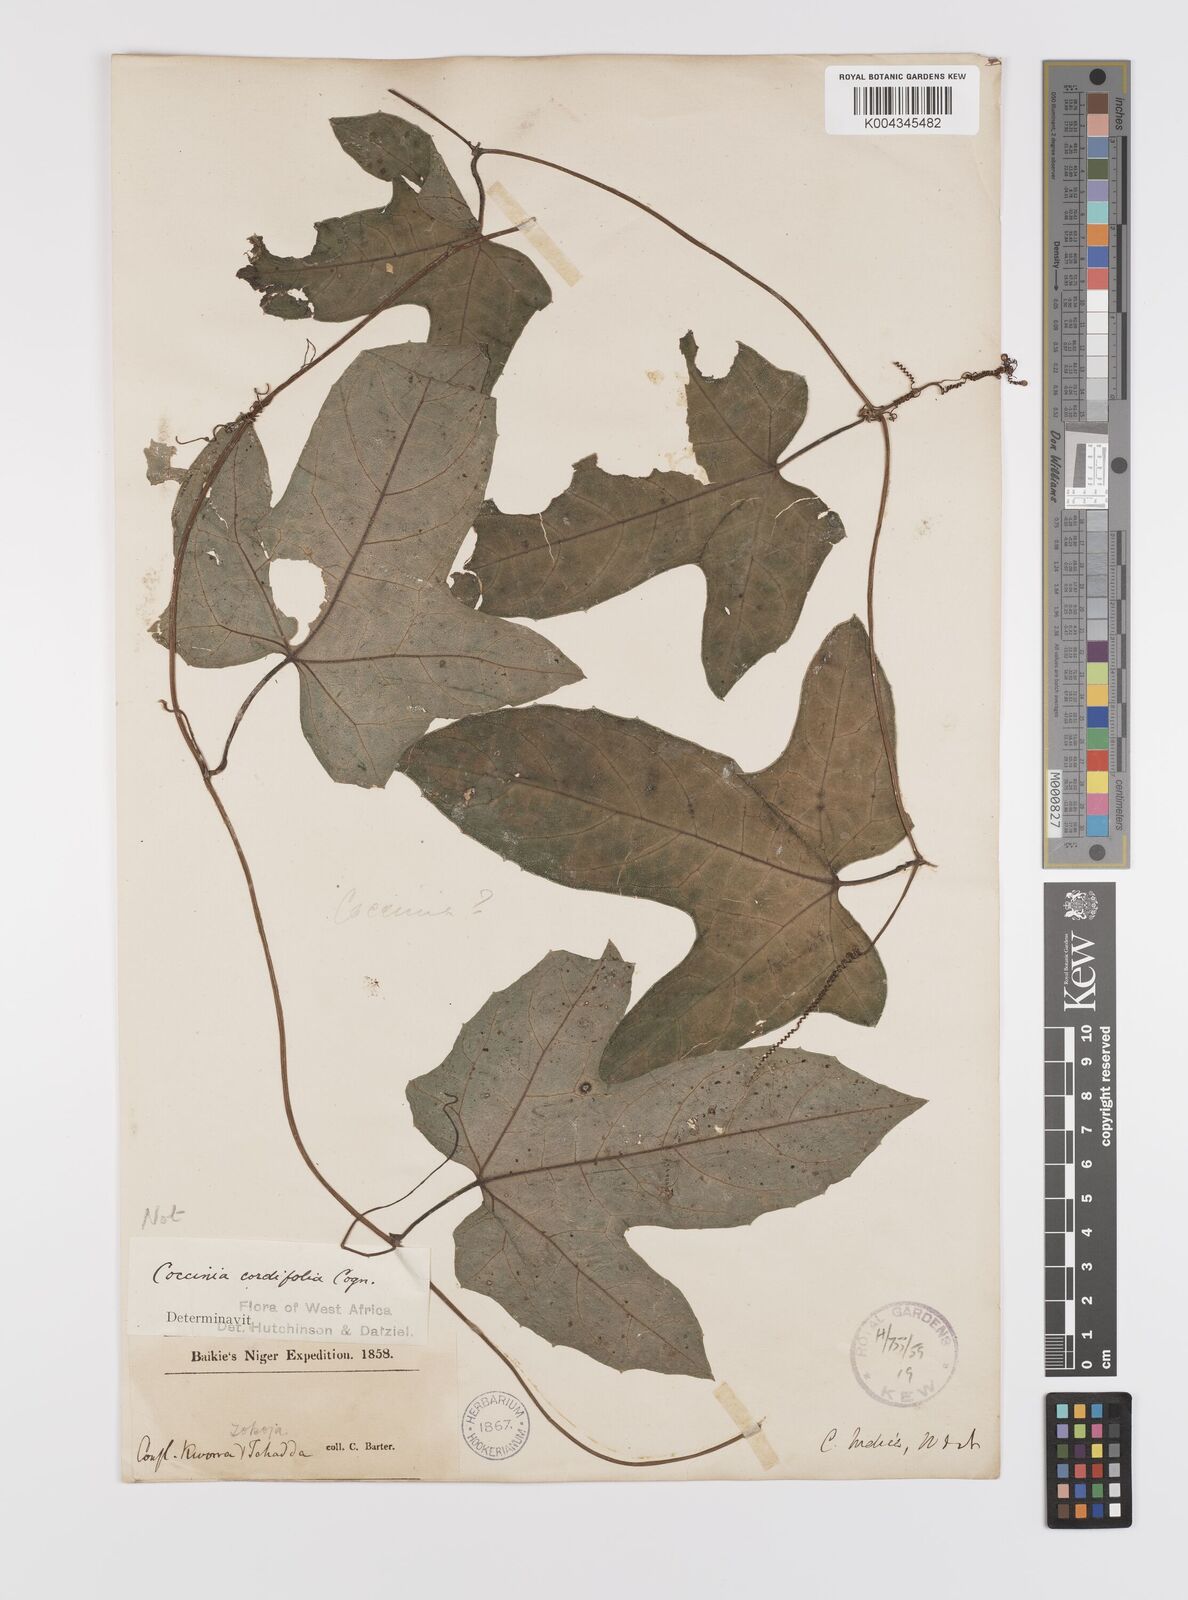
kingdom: Plantae
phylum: Tracheophyta
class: Magnoliopsida
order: Cucurbitales
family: Cucurbitaceae
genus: Coccinia
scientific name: Coccinia barteri
